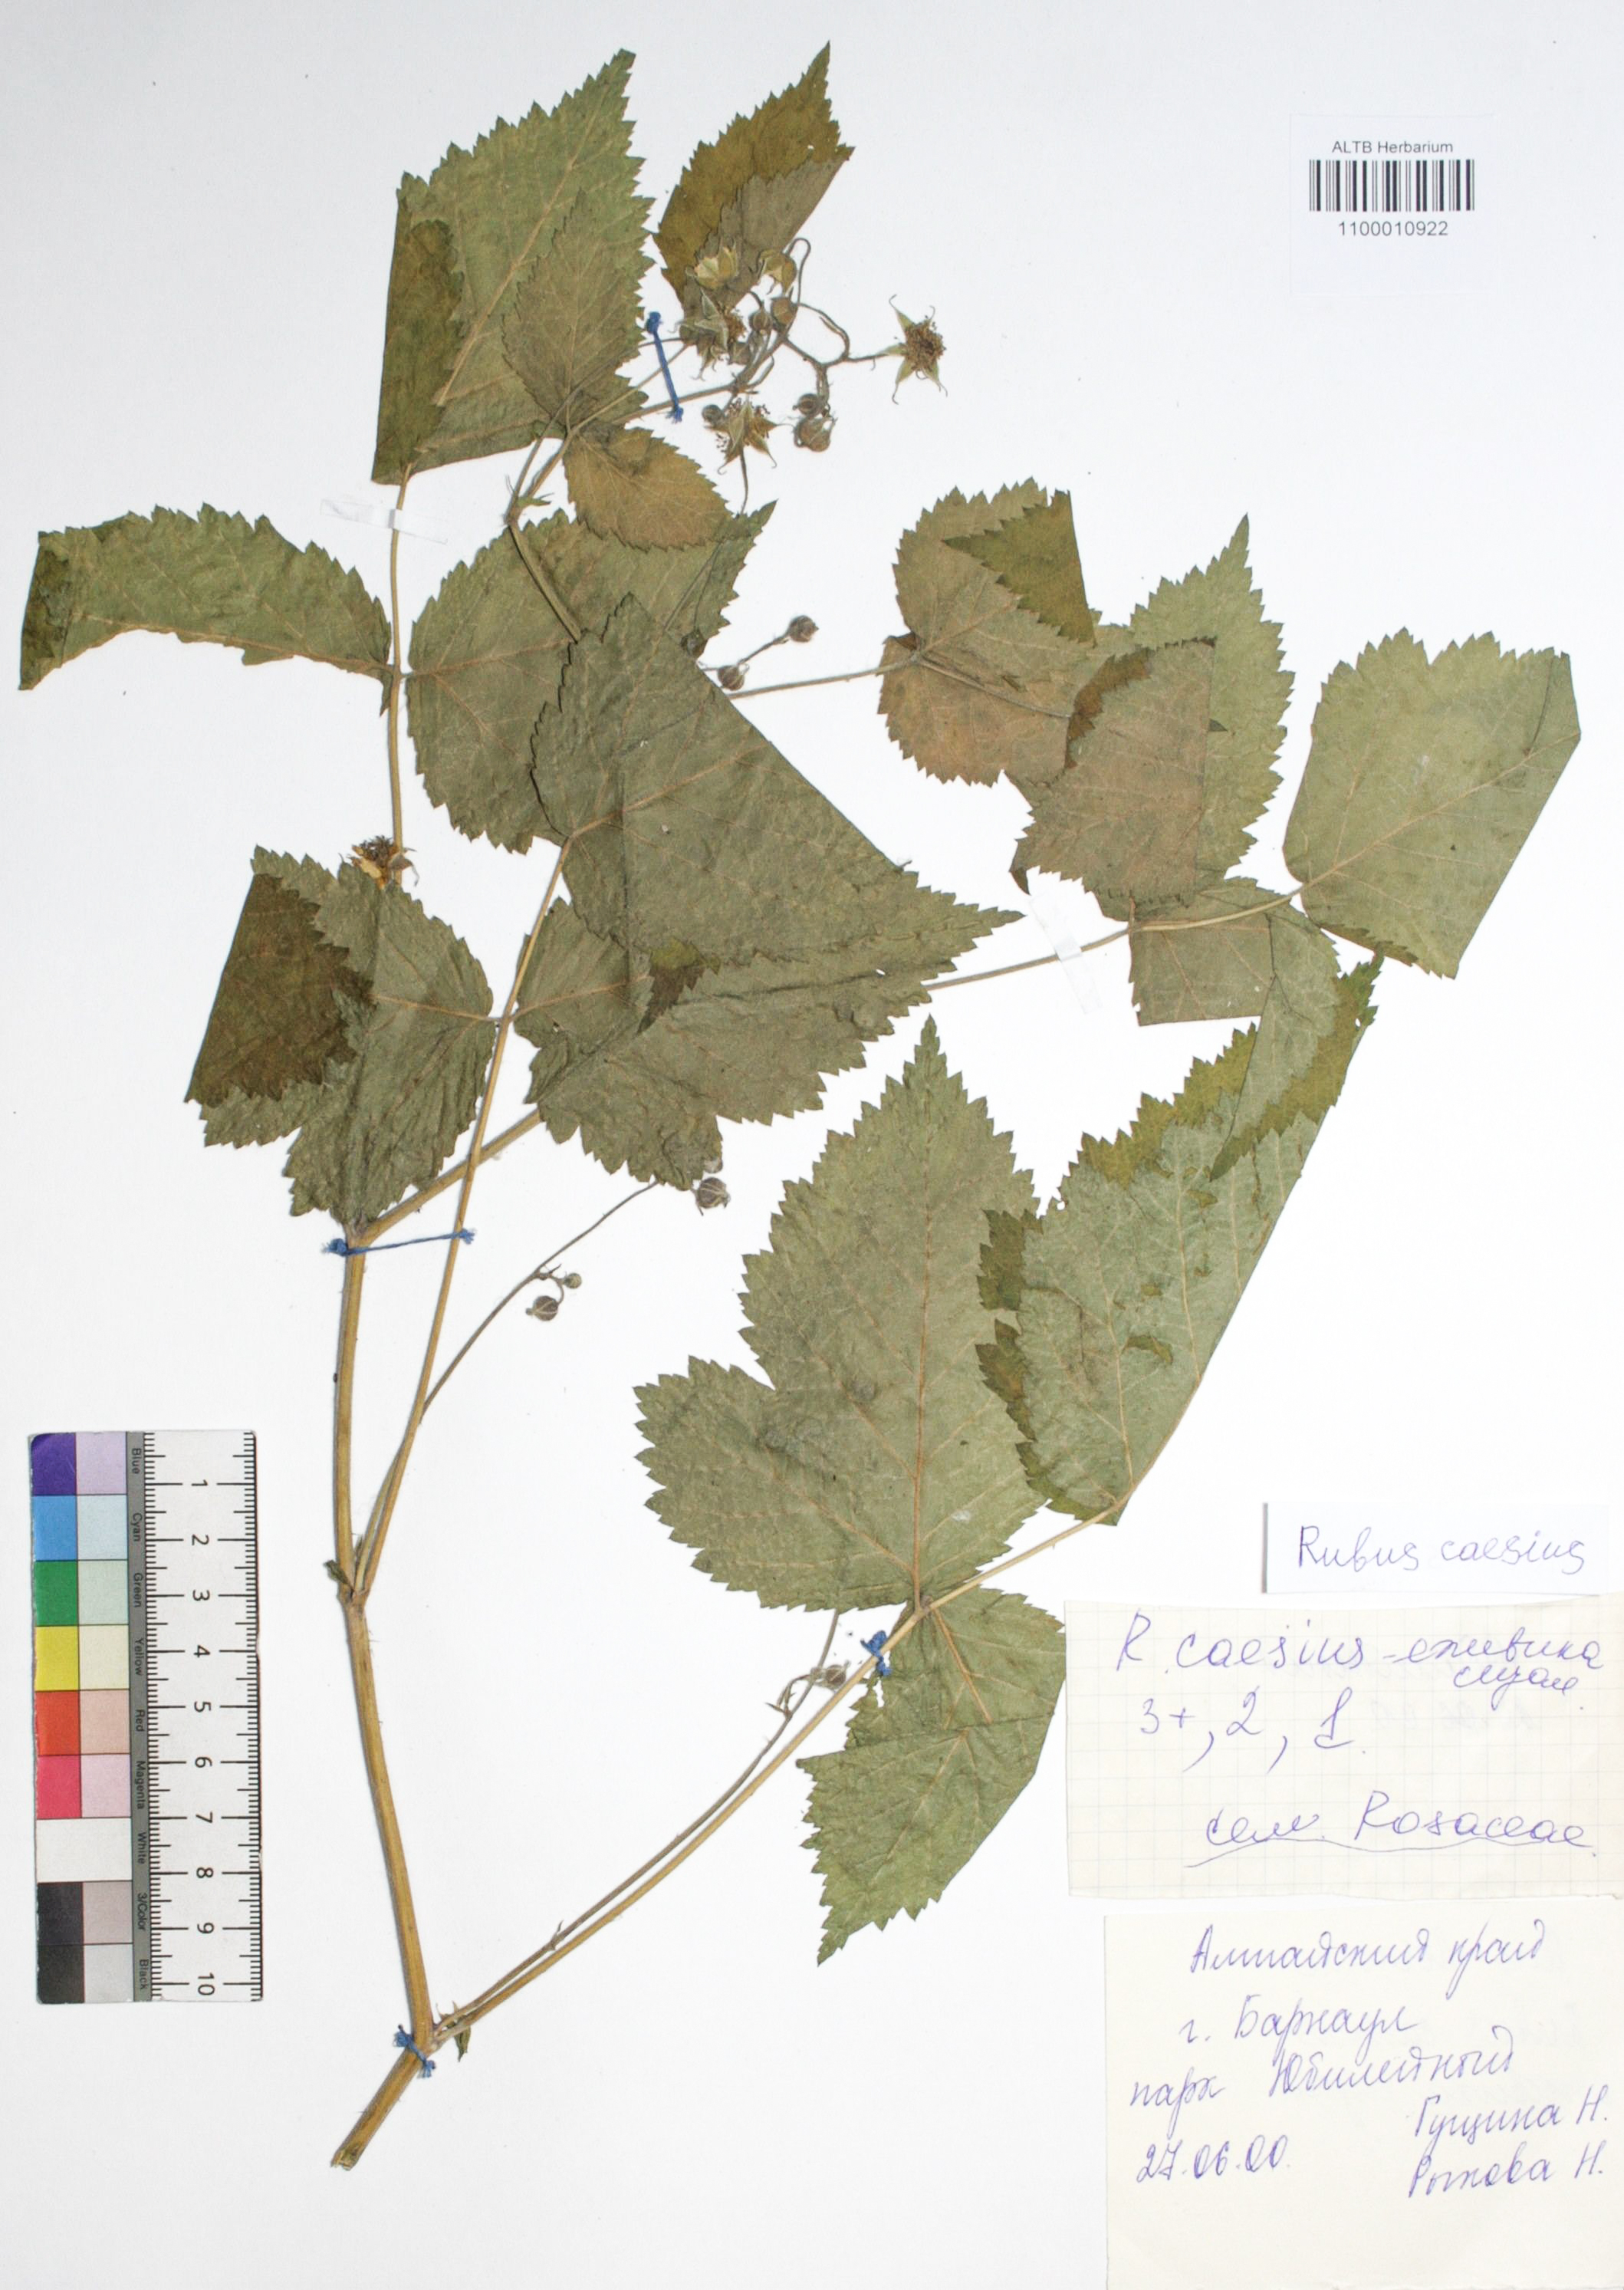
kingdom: Plantae
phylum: Tracheophyta
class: Magnoliopsida
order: Rosales
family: Rosaceae
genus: Rubus
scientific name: Rubus caesius
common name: Dewberry
